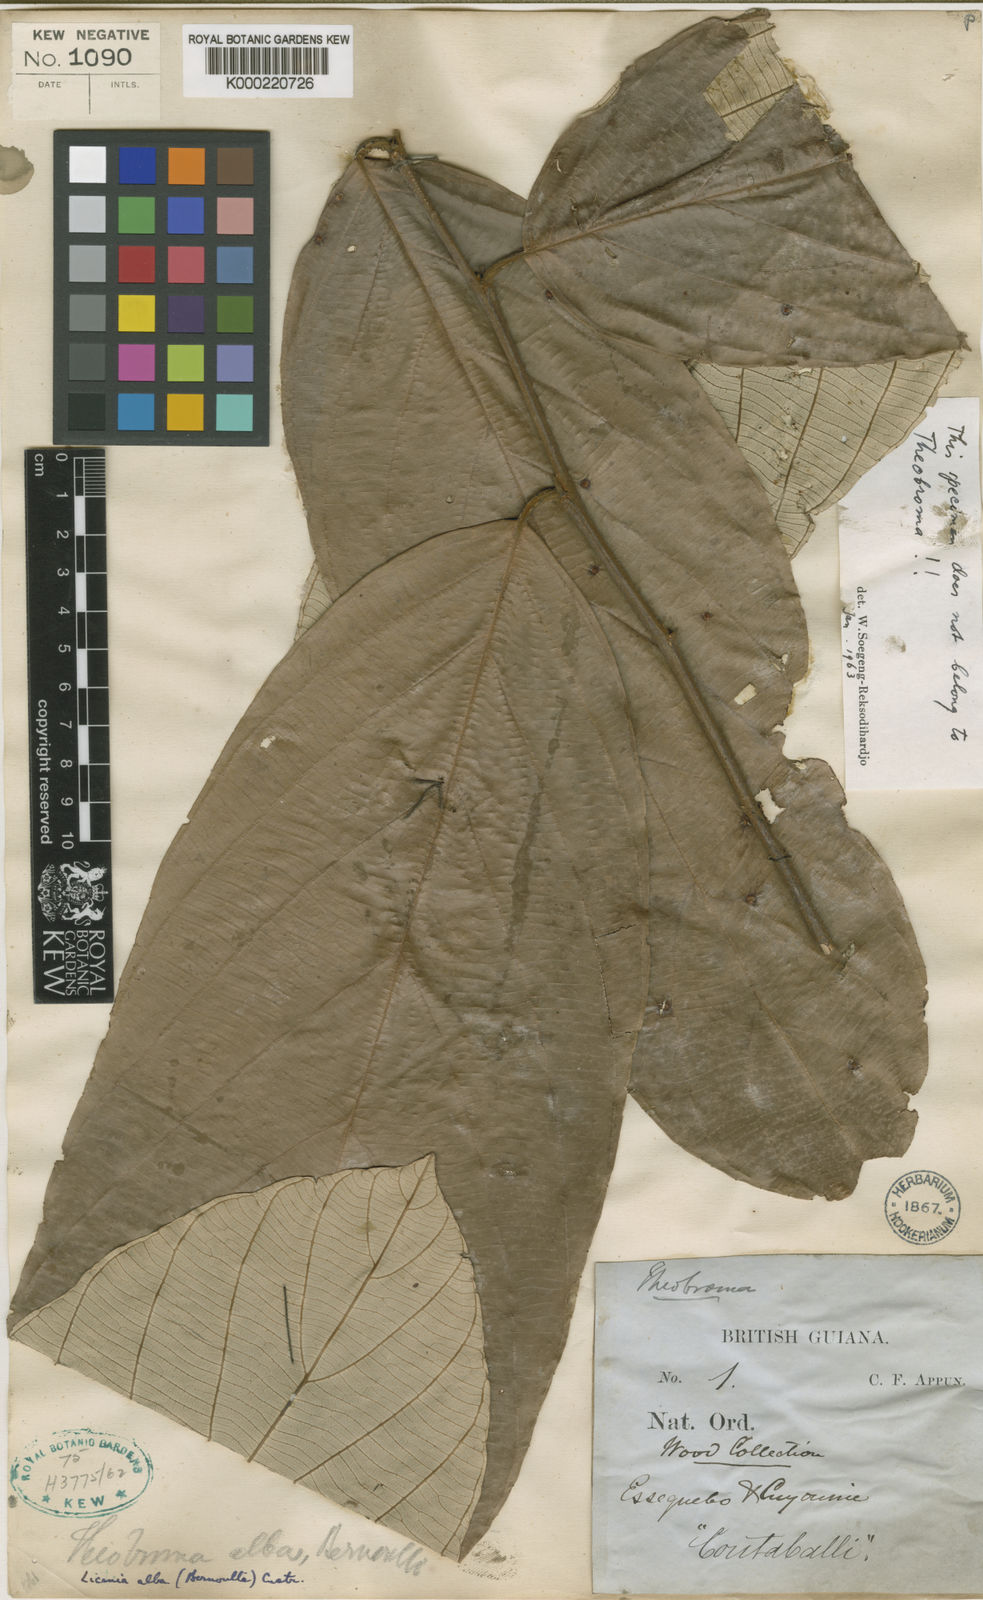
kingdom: Plantae
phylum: Tracheophyta
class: Magnoliopsida
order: Malpighiales
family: Chrysobalanaceae
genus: Licania
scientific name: Licania alba
